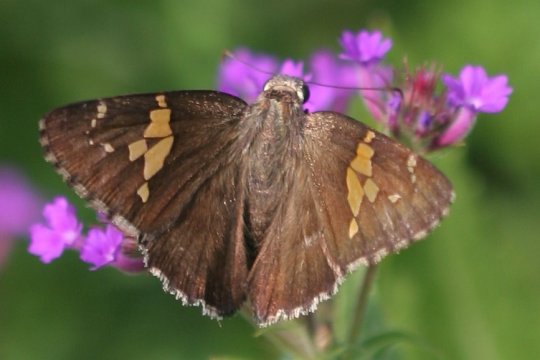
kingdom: Animalia
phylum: Arthropoda
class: Insecta
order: Lepidoptera
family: Hesperiidae
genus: Achalarus
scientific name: Achalarus lyciades
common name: Hoary Edge
